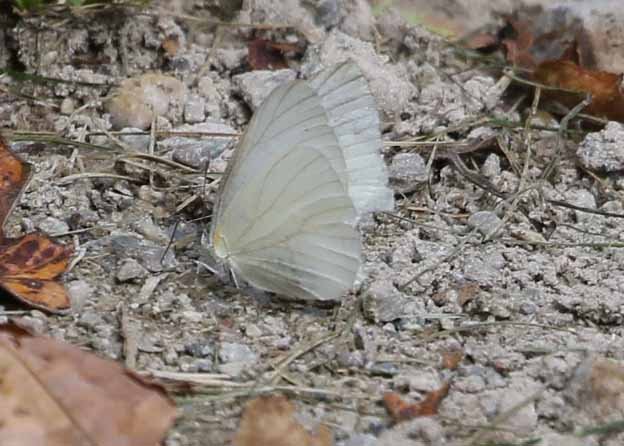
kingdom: Animalia
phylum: Arthropoda
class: Insecta
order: Lepidoptera
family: Pieridae
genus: Pieris
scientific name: Pieris oleracea
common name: Mustard White
